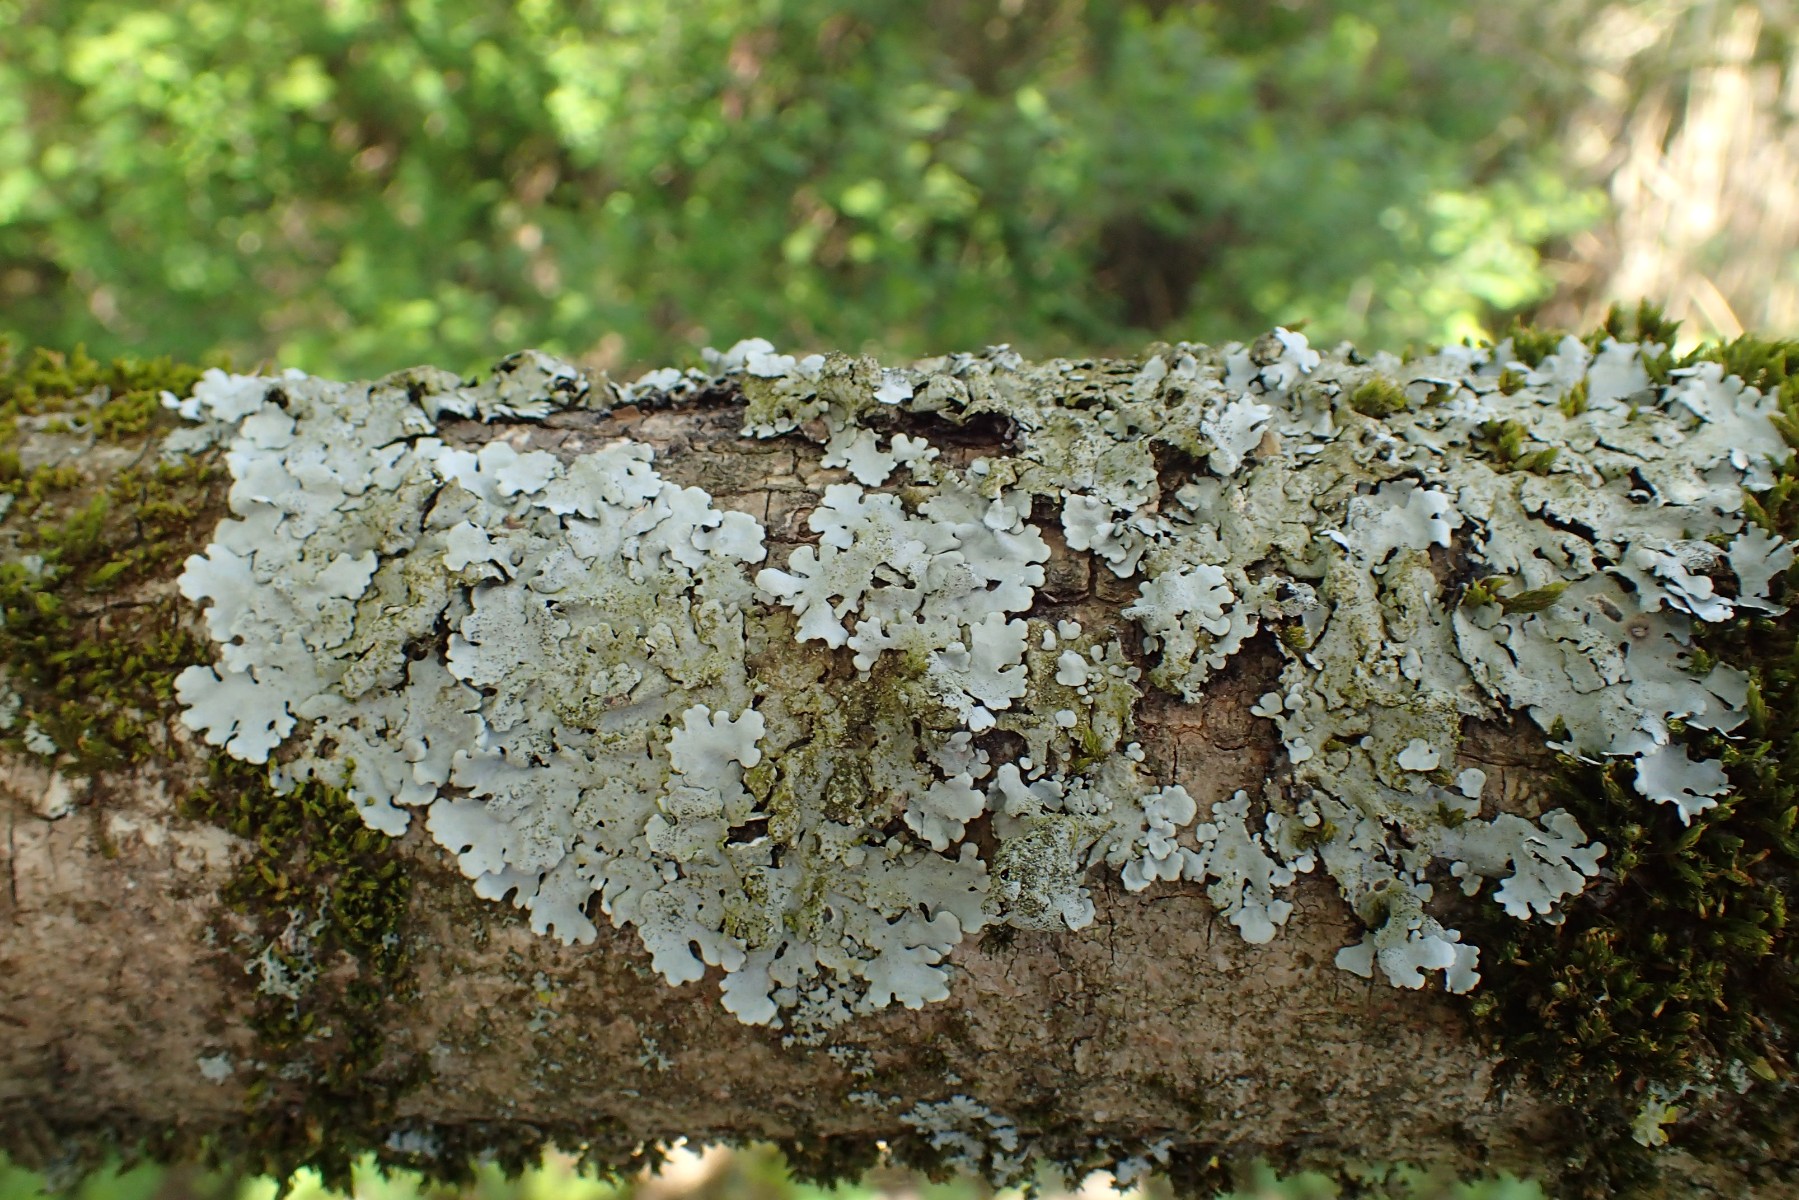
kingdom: Fungi
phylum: Ascomycota
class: Lecanoromycetes
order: Lecanorales
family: Parmeliaceae
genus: Parmelina
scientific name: Parmelina pastillifera
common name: pastil-skållav
